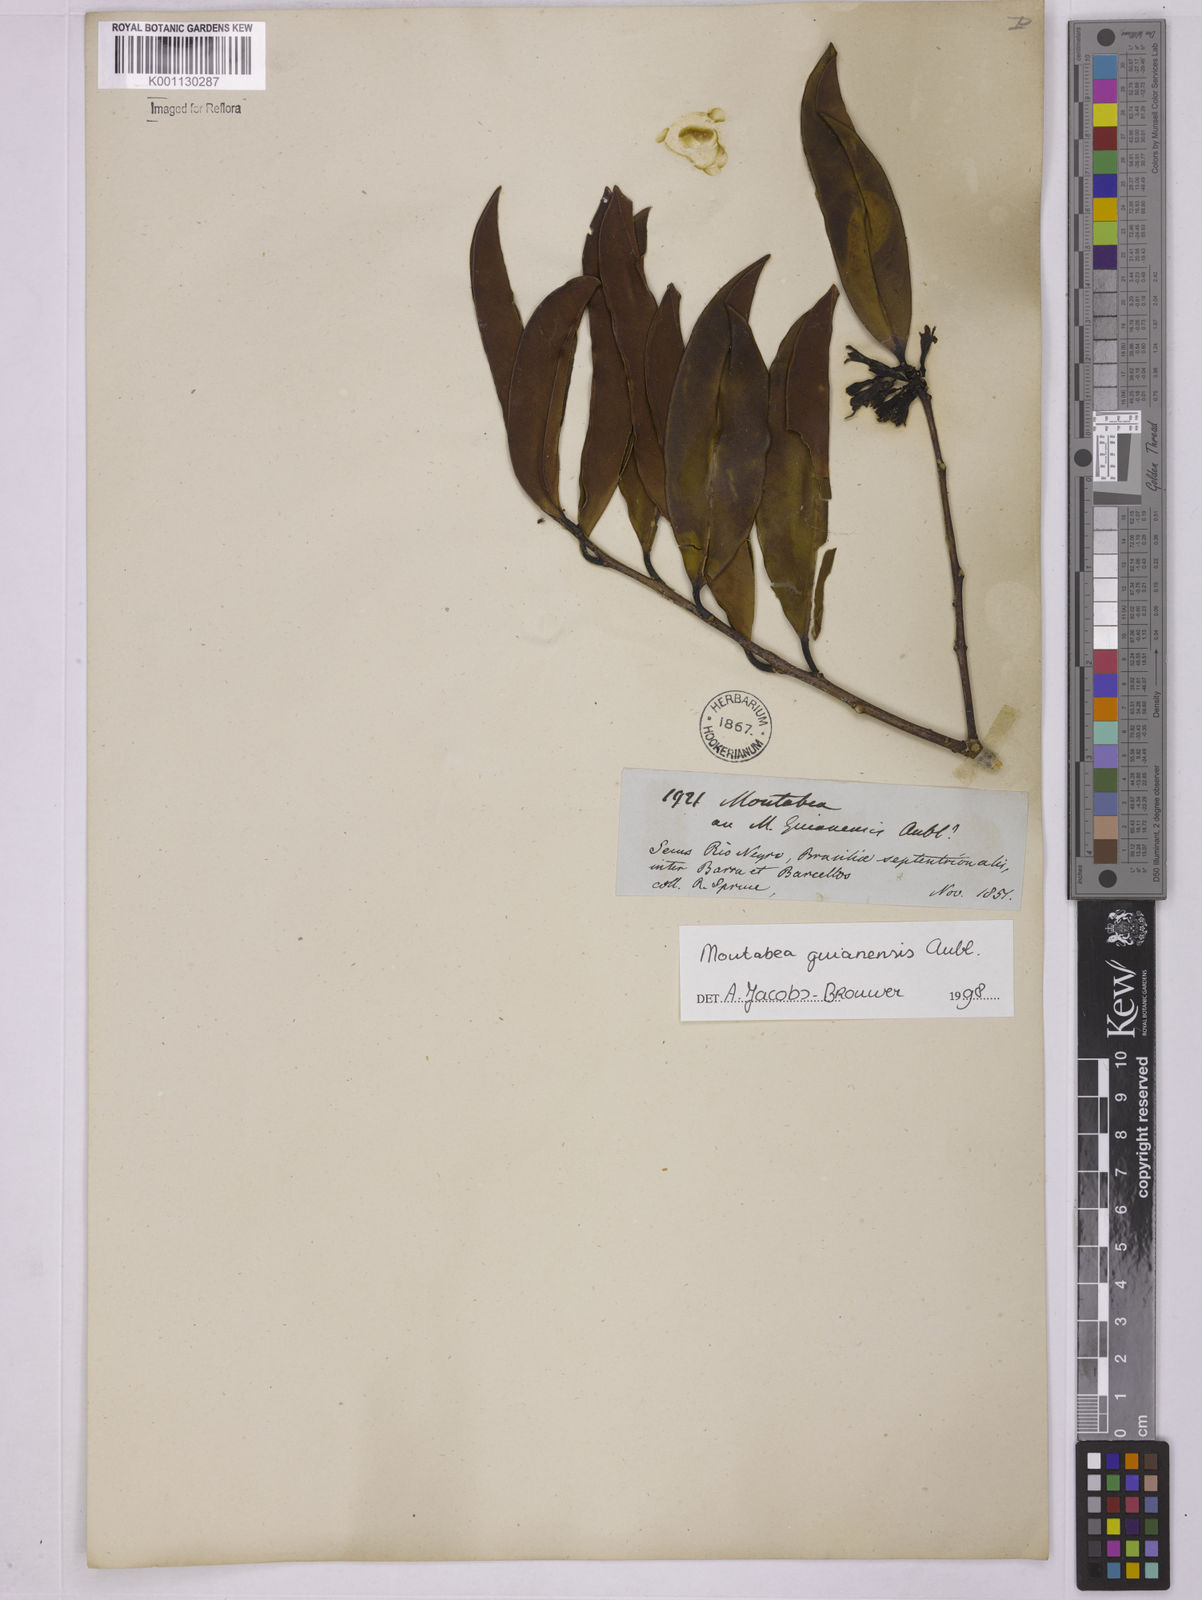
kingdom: Plantae
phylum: Tracheophyta
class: Magnoliopsida
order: Fabales
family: Polygalaceae
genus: Moutabea
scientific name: Moutabea guianensis
